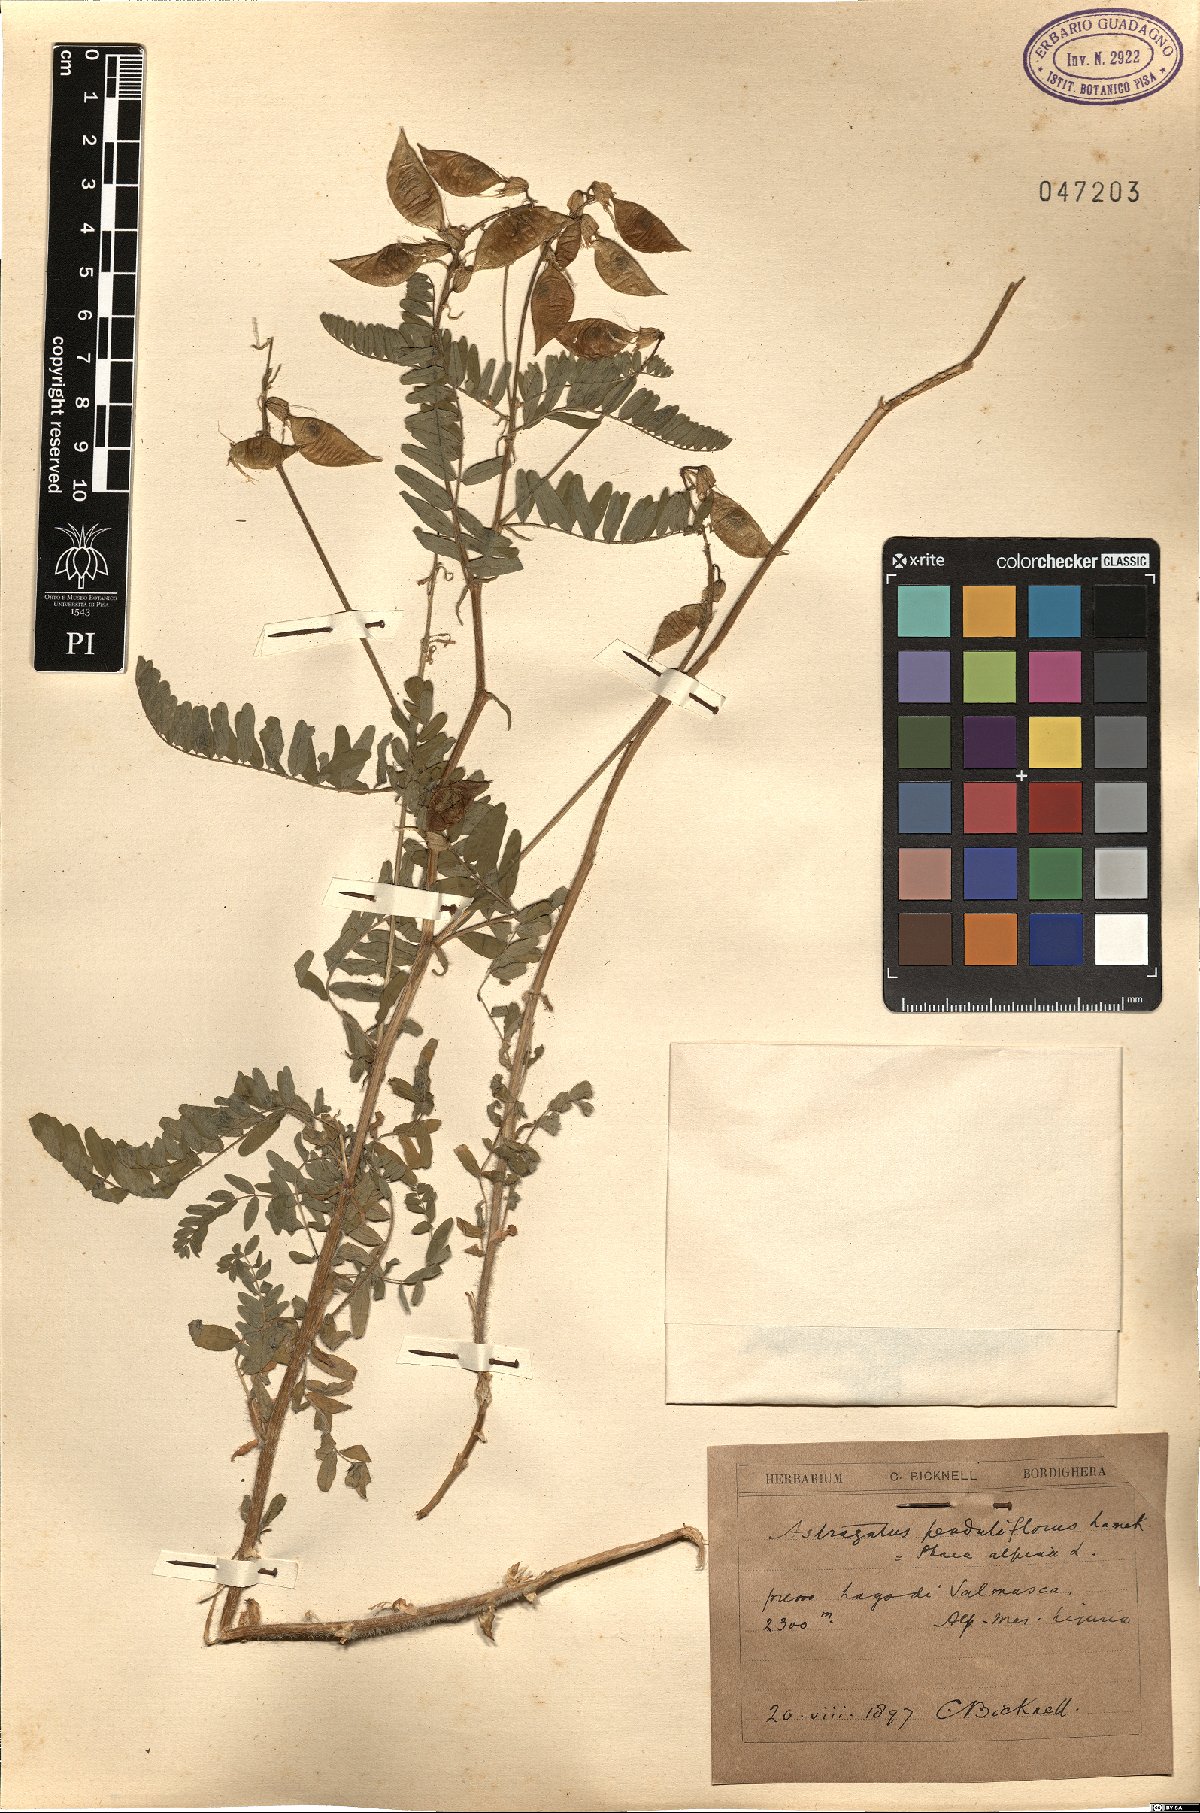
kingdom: Plantae
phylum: Tracheophyta
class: Magnoliopsida
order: Fabales
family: Fabaceae
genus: Astragalus
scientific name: Astragalus penduliflorus
